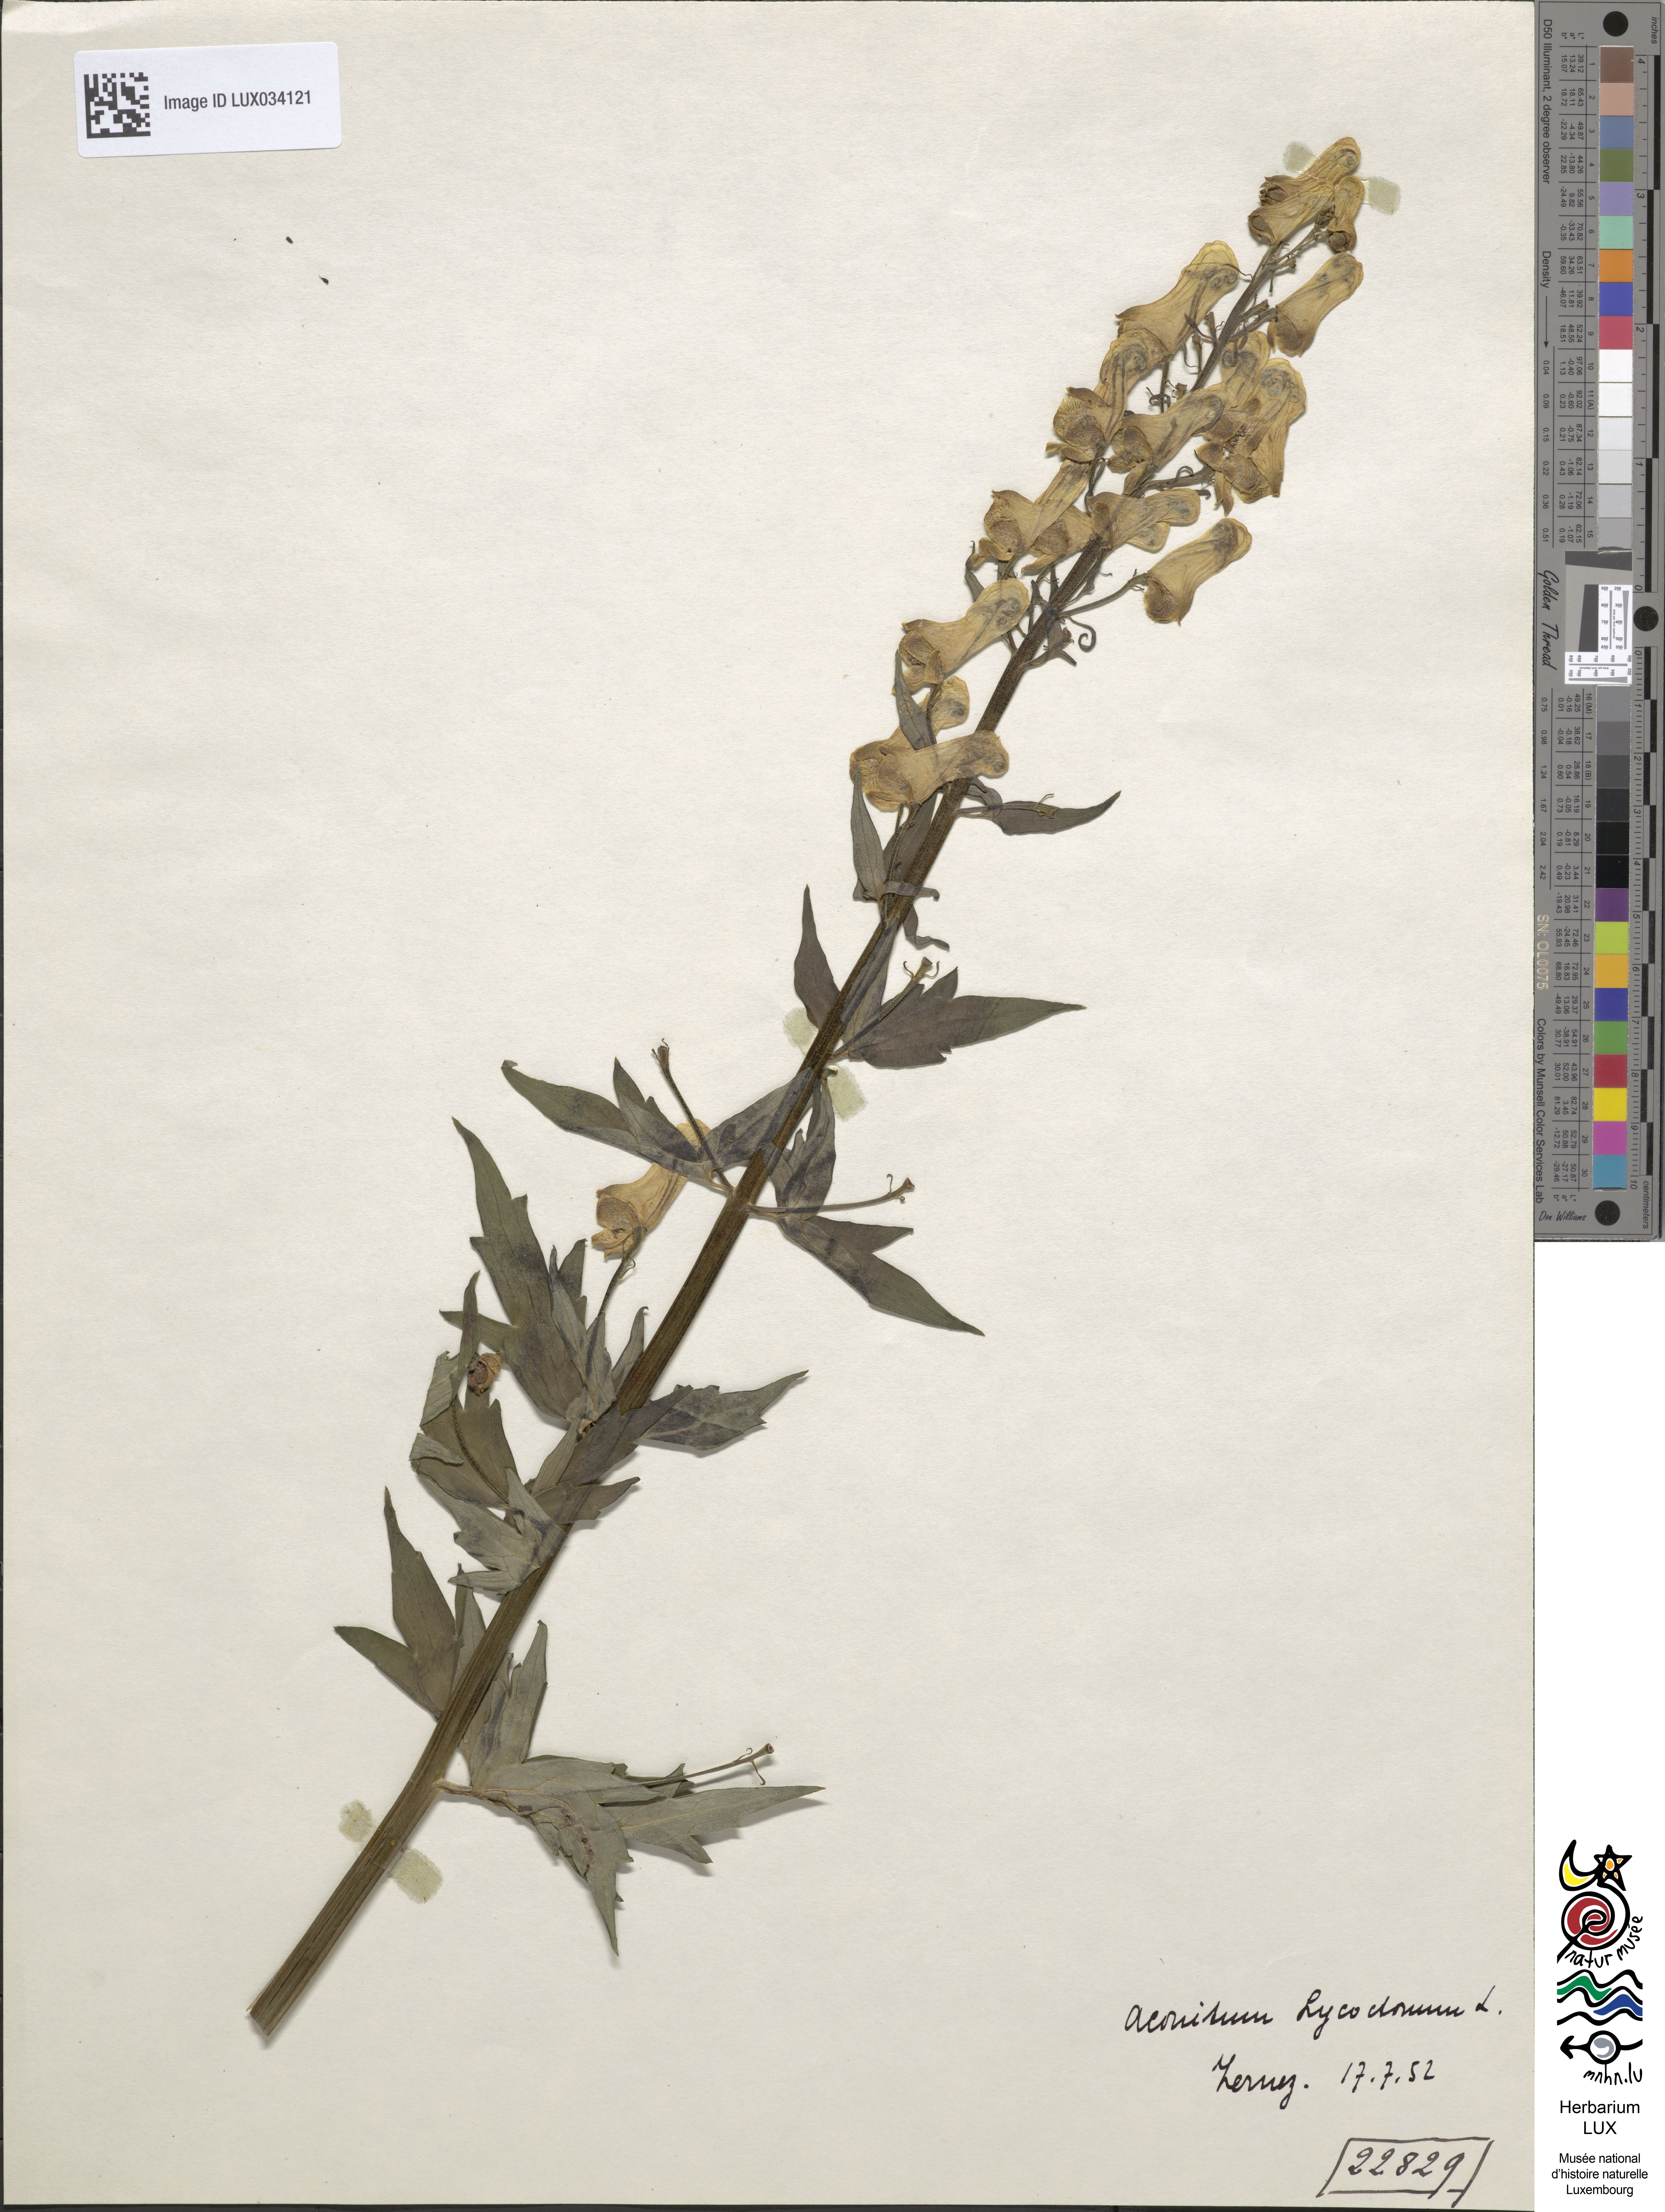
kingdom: Plantae
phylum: Tracheophyta
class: Magnoliopsida
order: Ranunculales
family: Ranunculaceae
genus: Aconitum
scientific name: Aconitum lycoctonum
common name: Wolf's-bane
